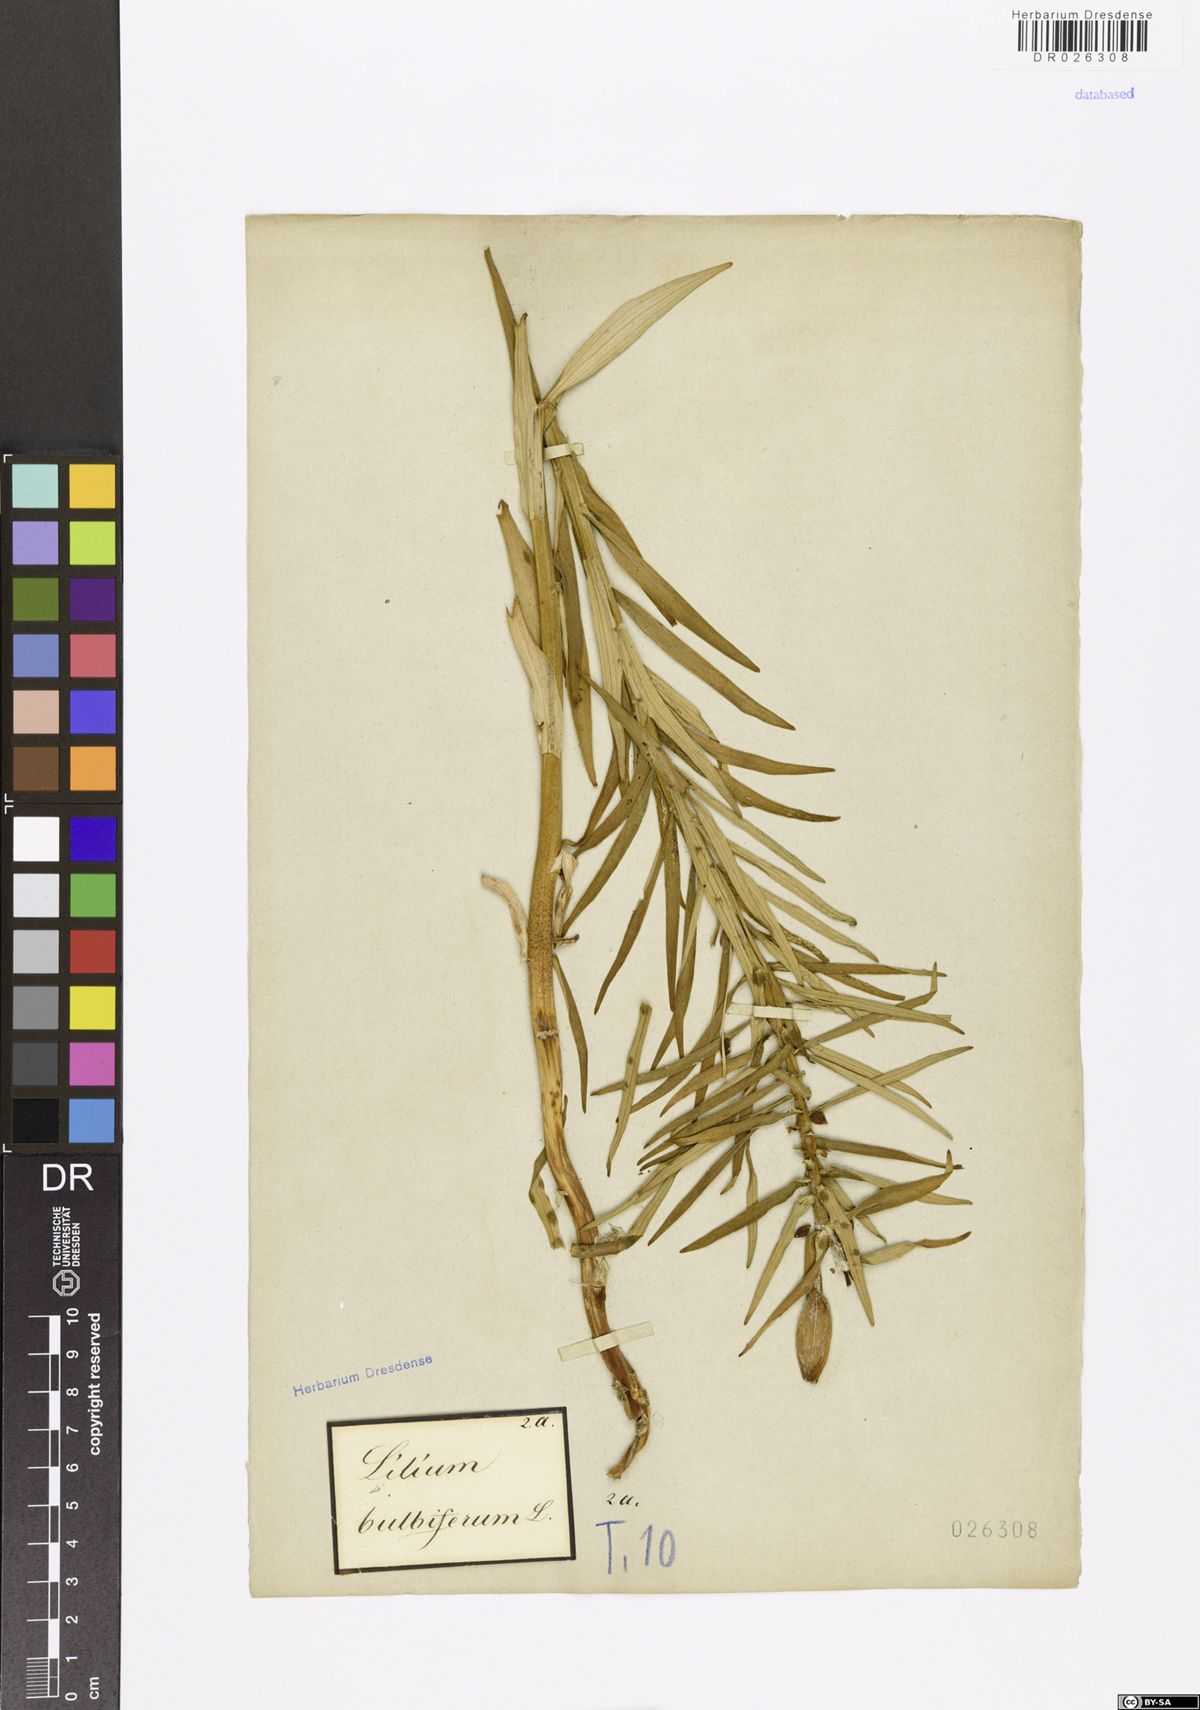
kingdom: Plantae
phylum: Tracheophyta
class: Liliopsida
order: Liliales
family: Liliaceae
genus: Lilium
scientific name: Lilium bulbiferum
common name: Orange lily
